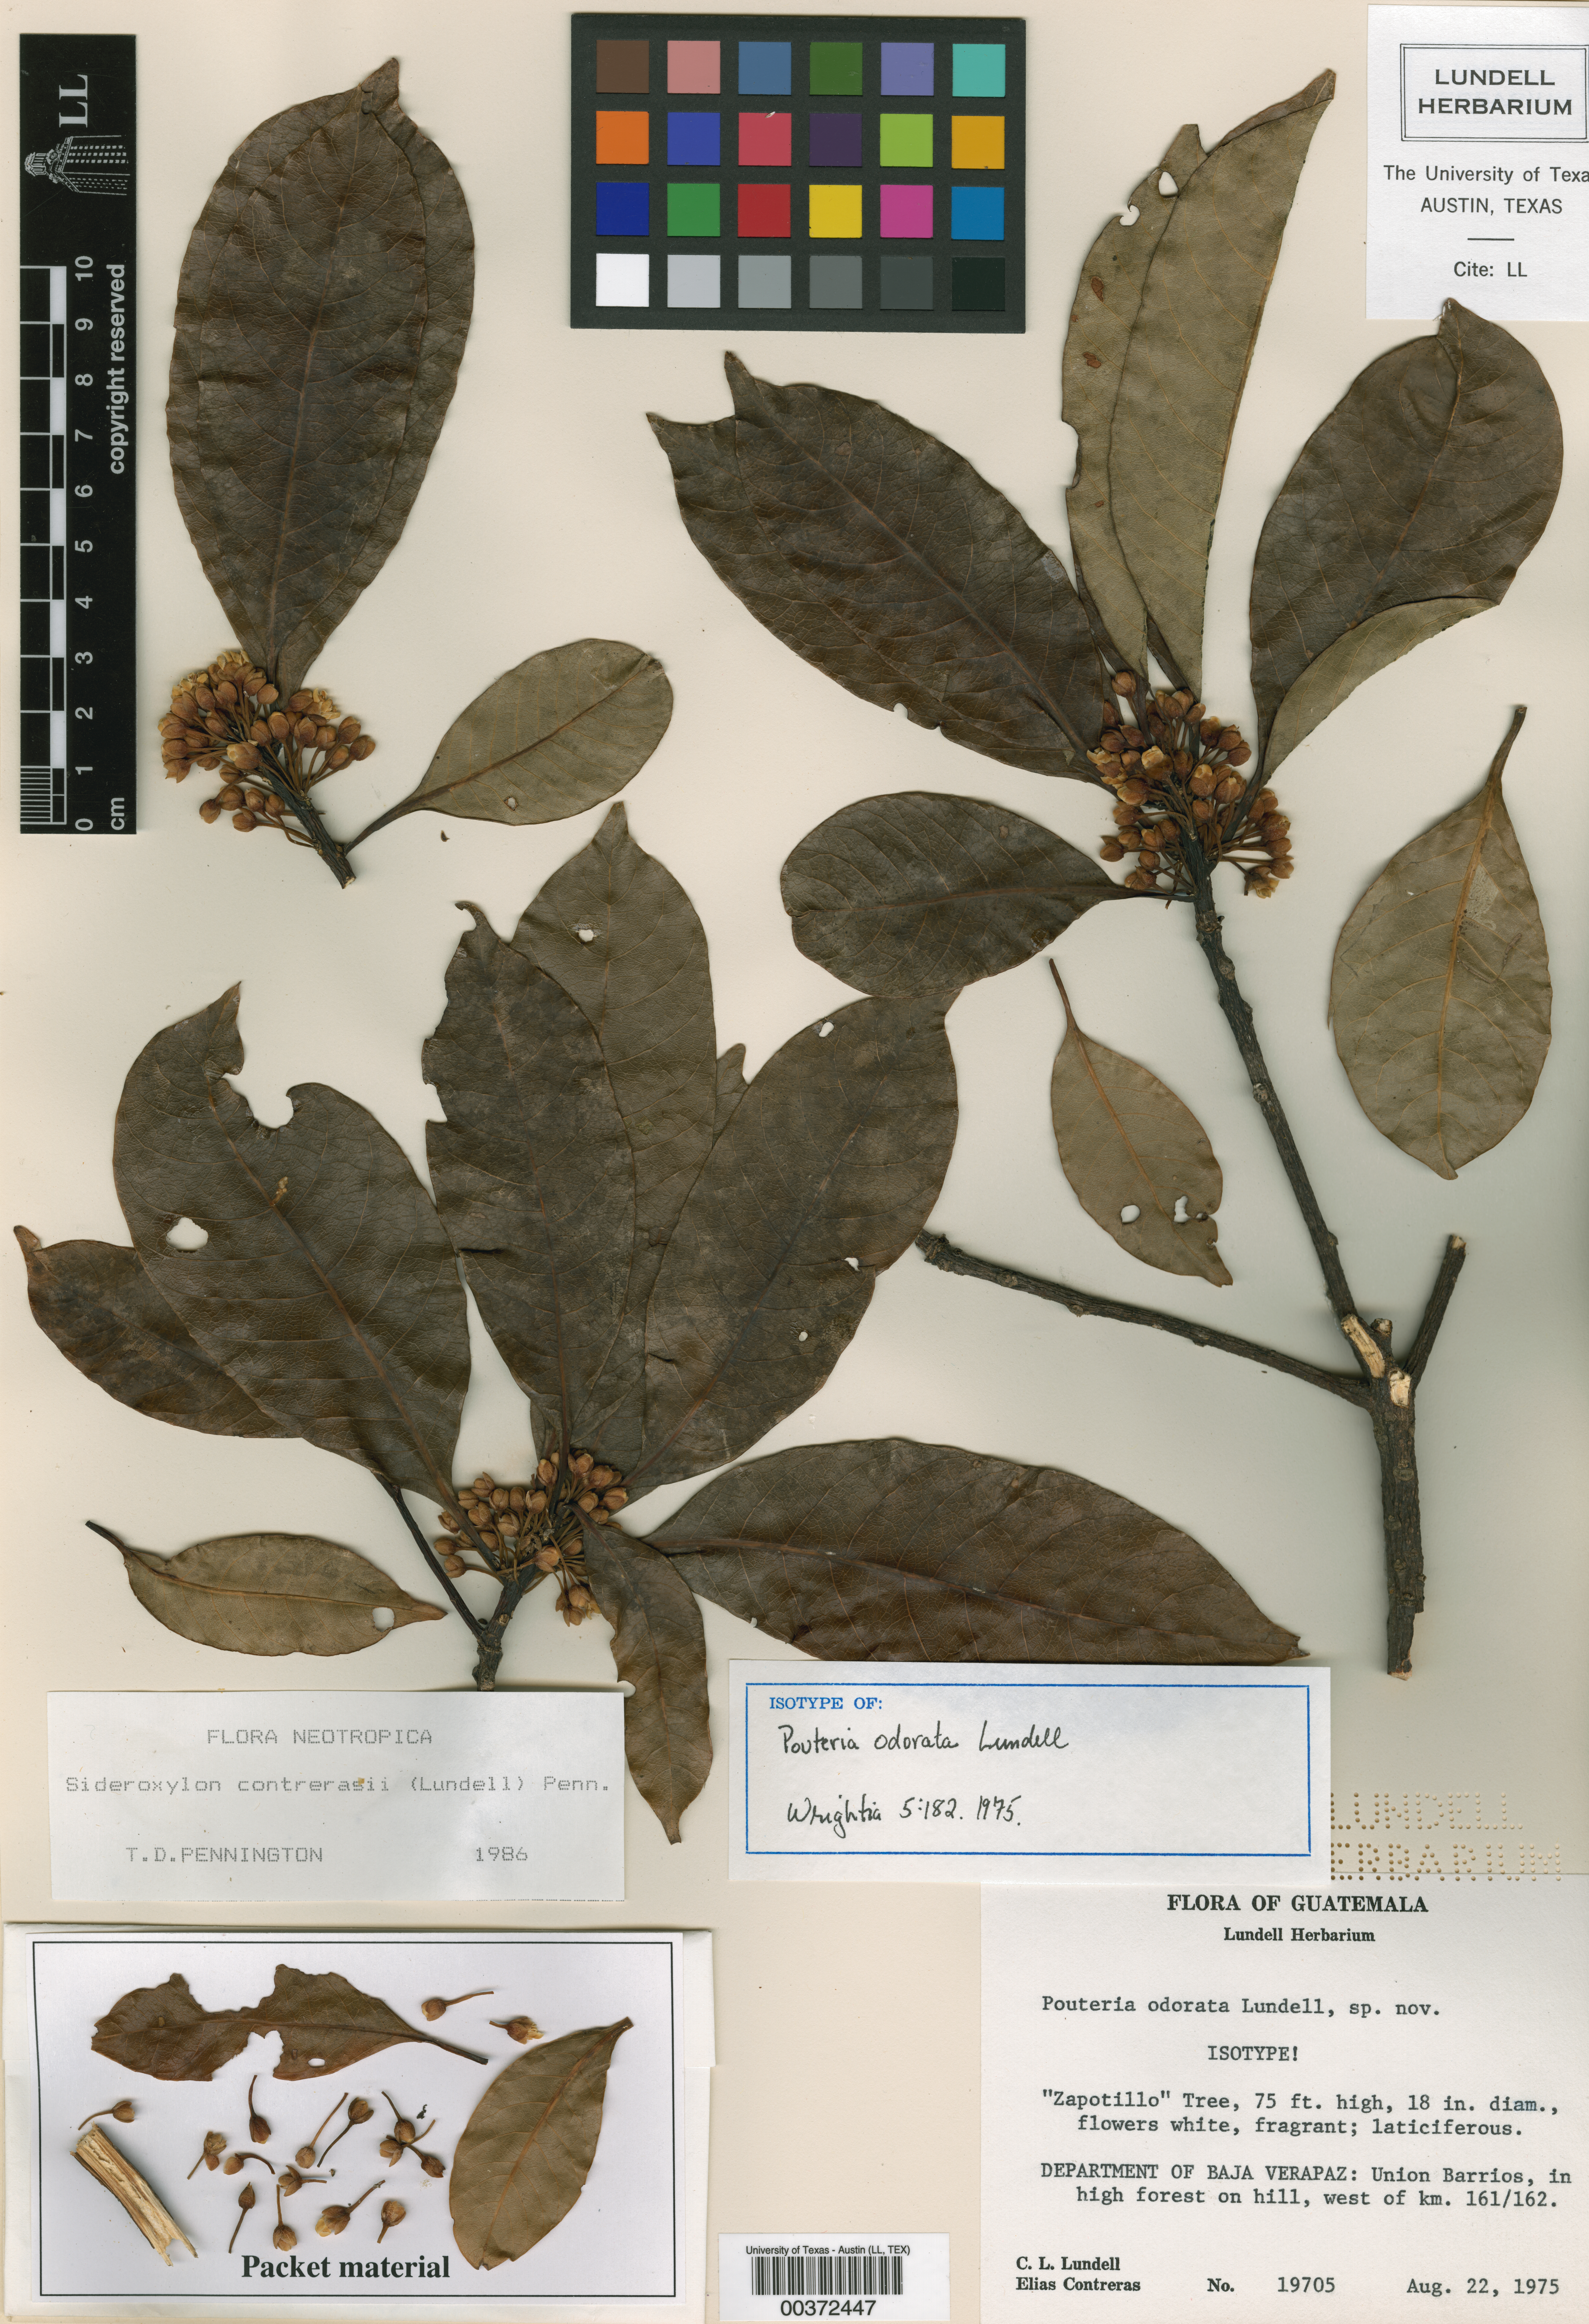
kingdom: Plantae
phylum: Tracheophyta
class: Magnoliopsida
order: Ericales
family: Sapotaceae
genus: Sideroxylon
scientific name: Sideroxylon contrerasii
